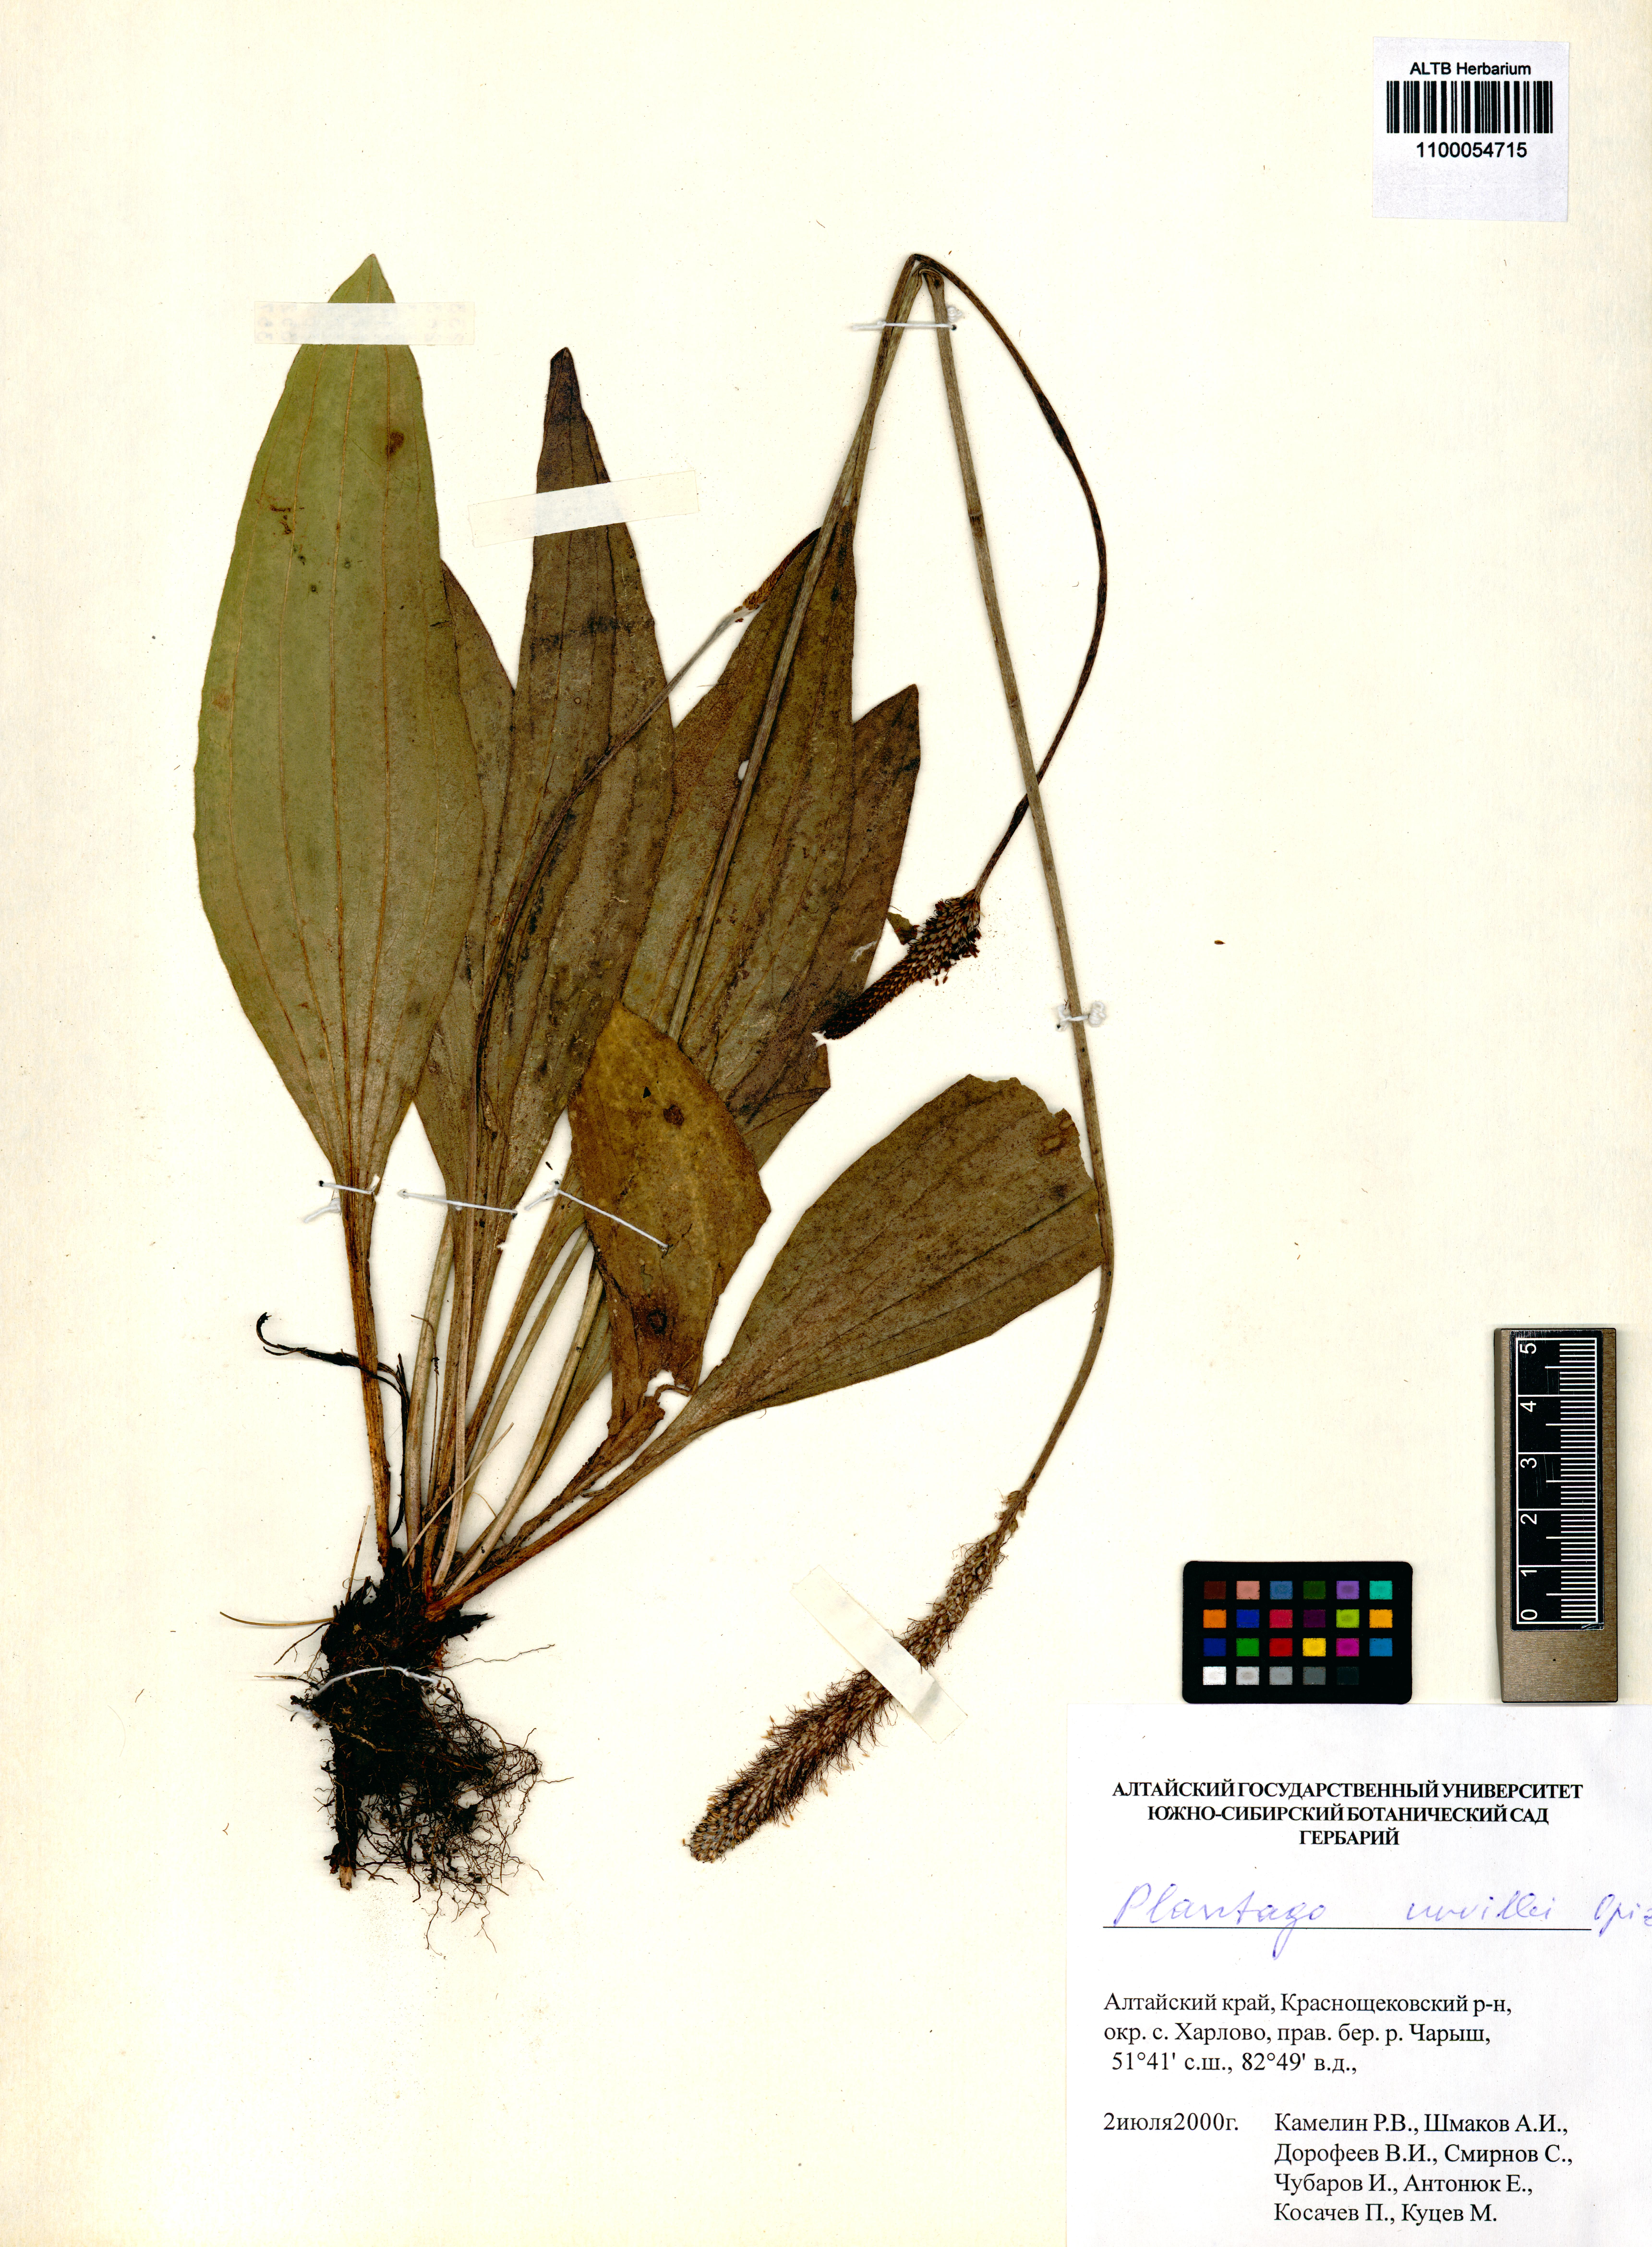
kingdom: Plantae
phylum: Tracheophyta
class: Magnoliopsida
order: Lamiales
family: Plantaginaceae
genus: Plantago
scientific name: Plantago urvillei
